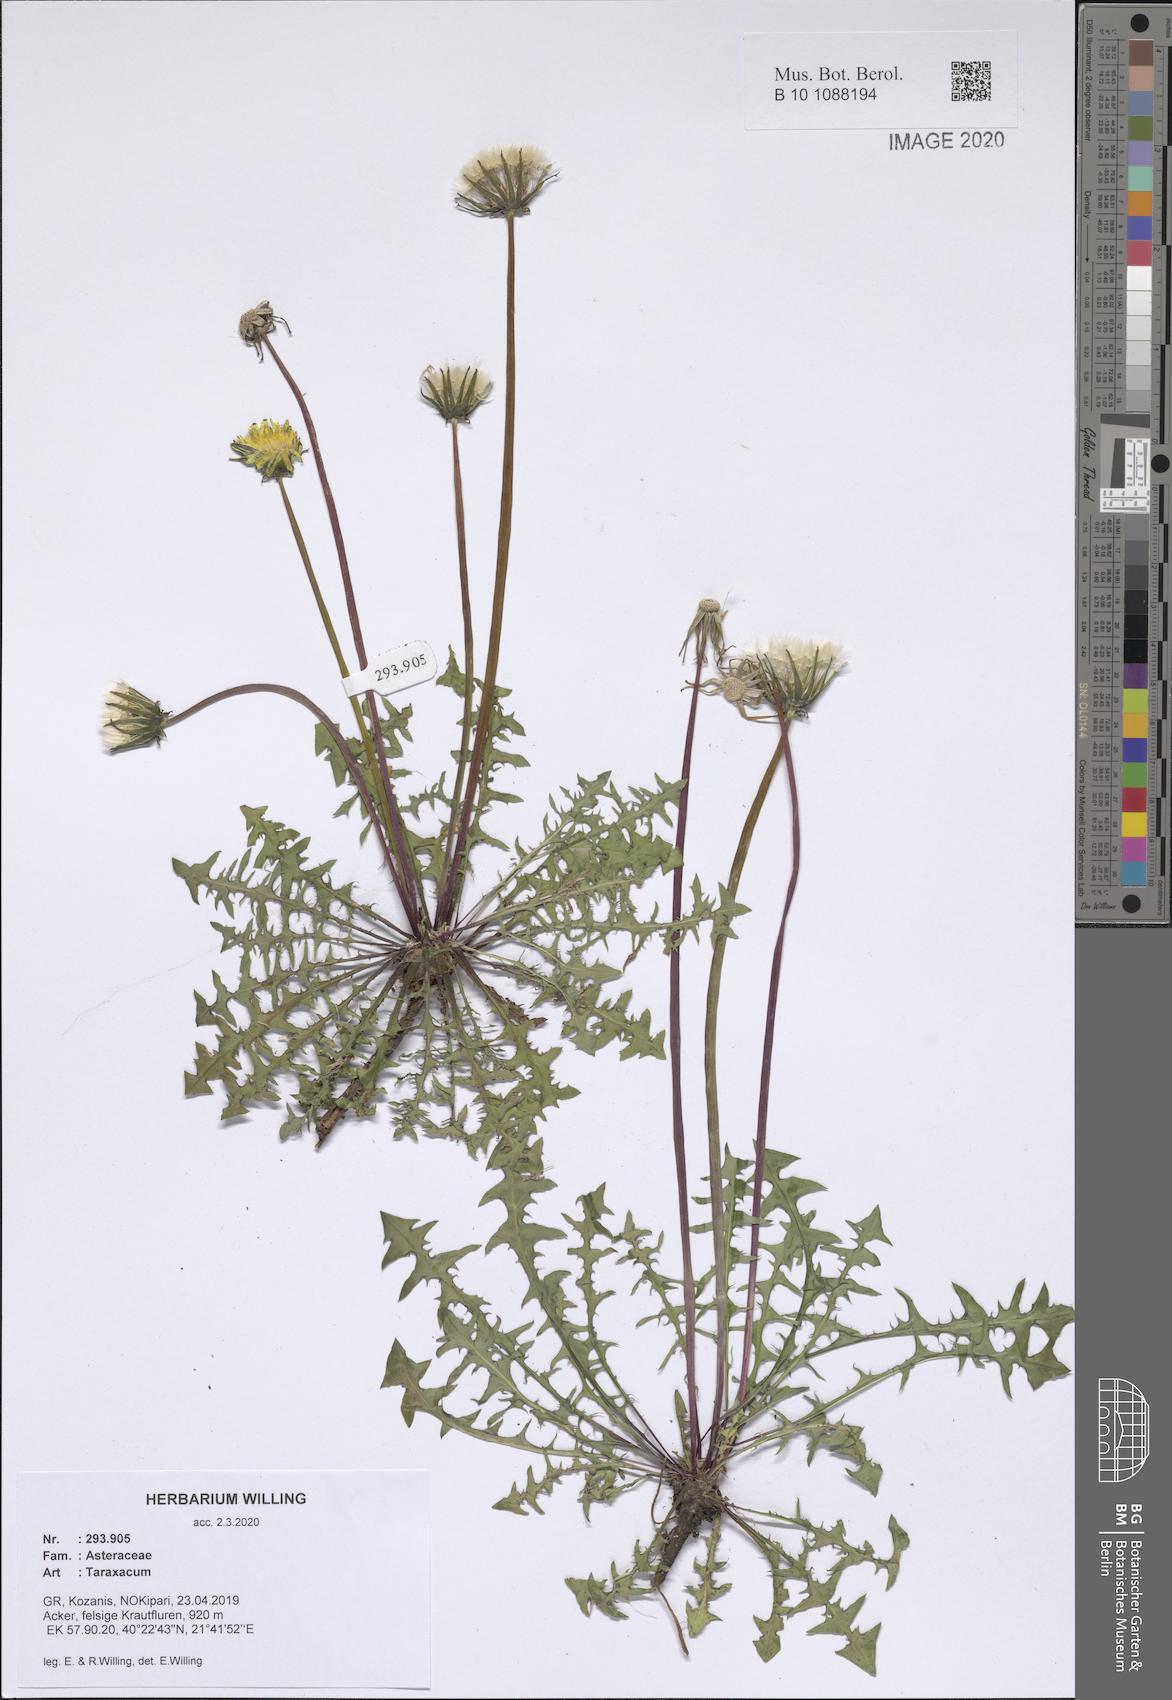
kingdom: Plantae
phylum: Tracheophyta
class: Magnoliopsida
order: Asterales
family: Asteraceae
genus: Taraxacum
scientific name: Taraxacum
